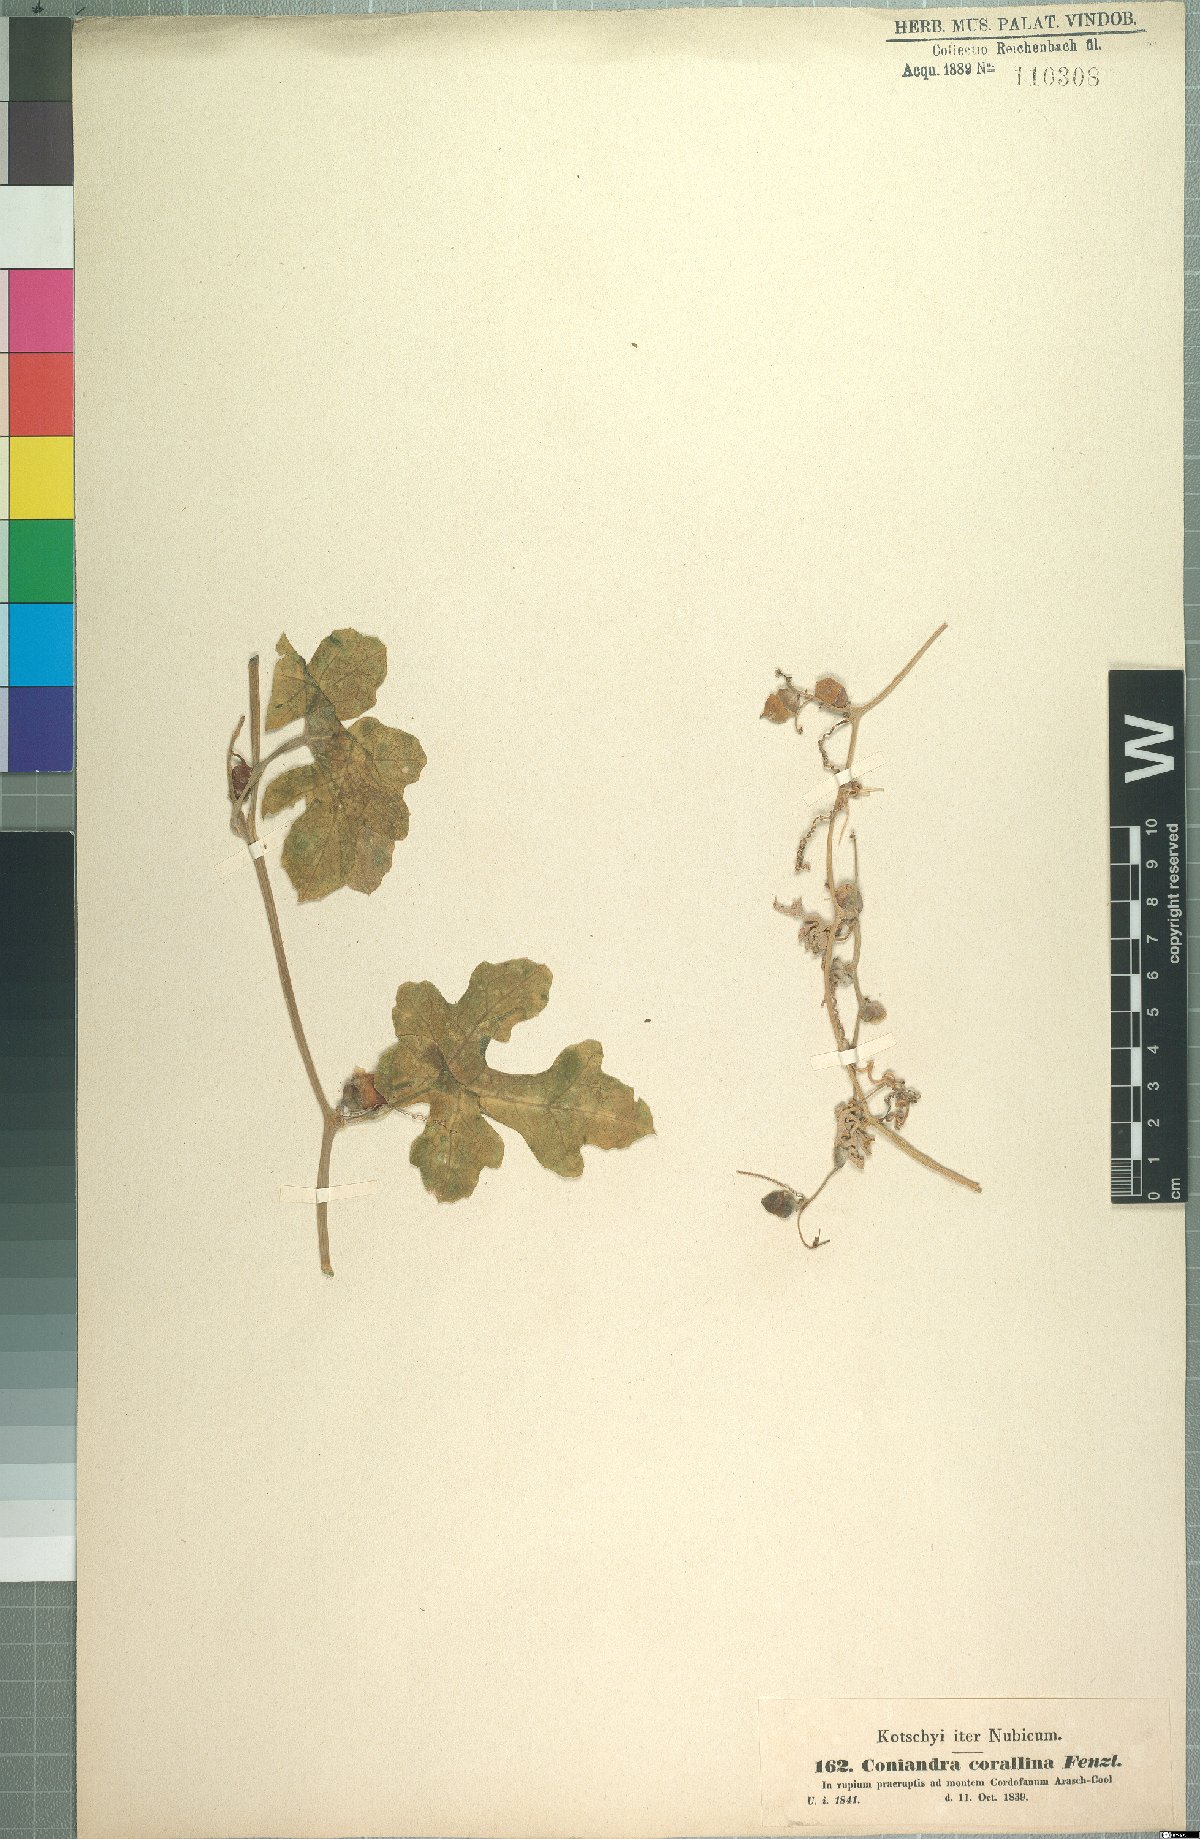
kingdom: Plantae
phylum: Tracheophyta
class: Magnoliopsida
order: Cucurbitales
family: Cucurbitaceae
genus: Corallocarpus
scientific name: Corallocarpus epigaeus
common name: Indian bryonia
